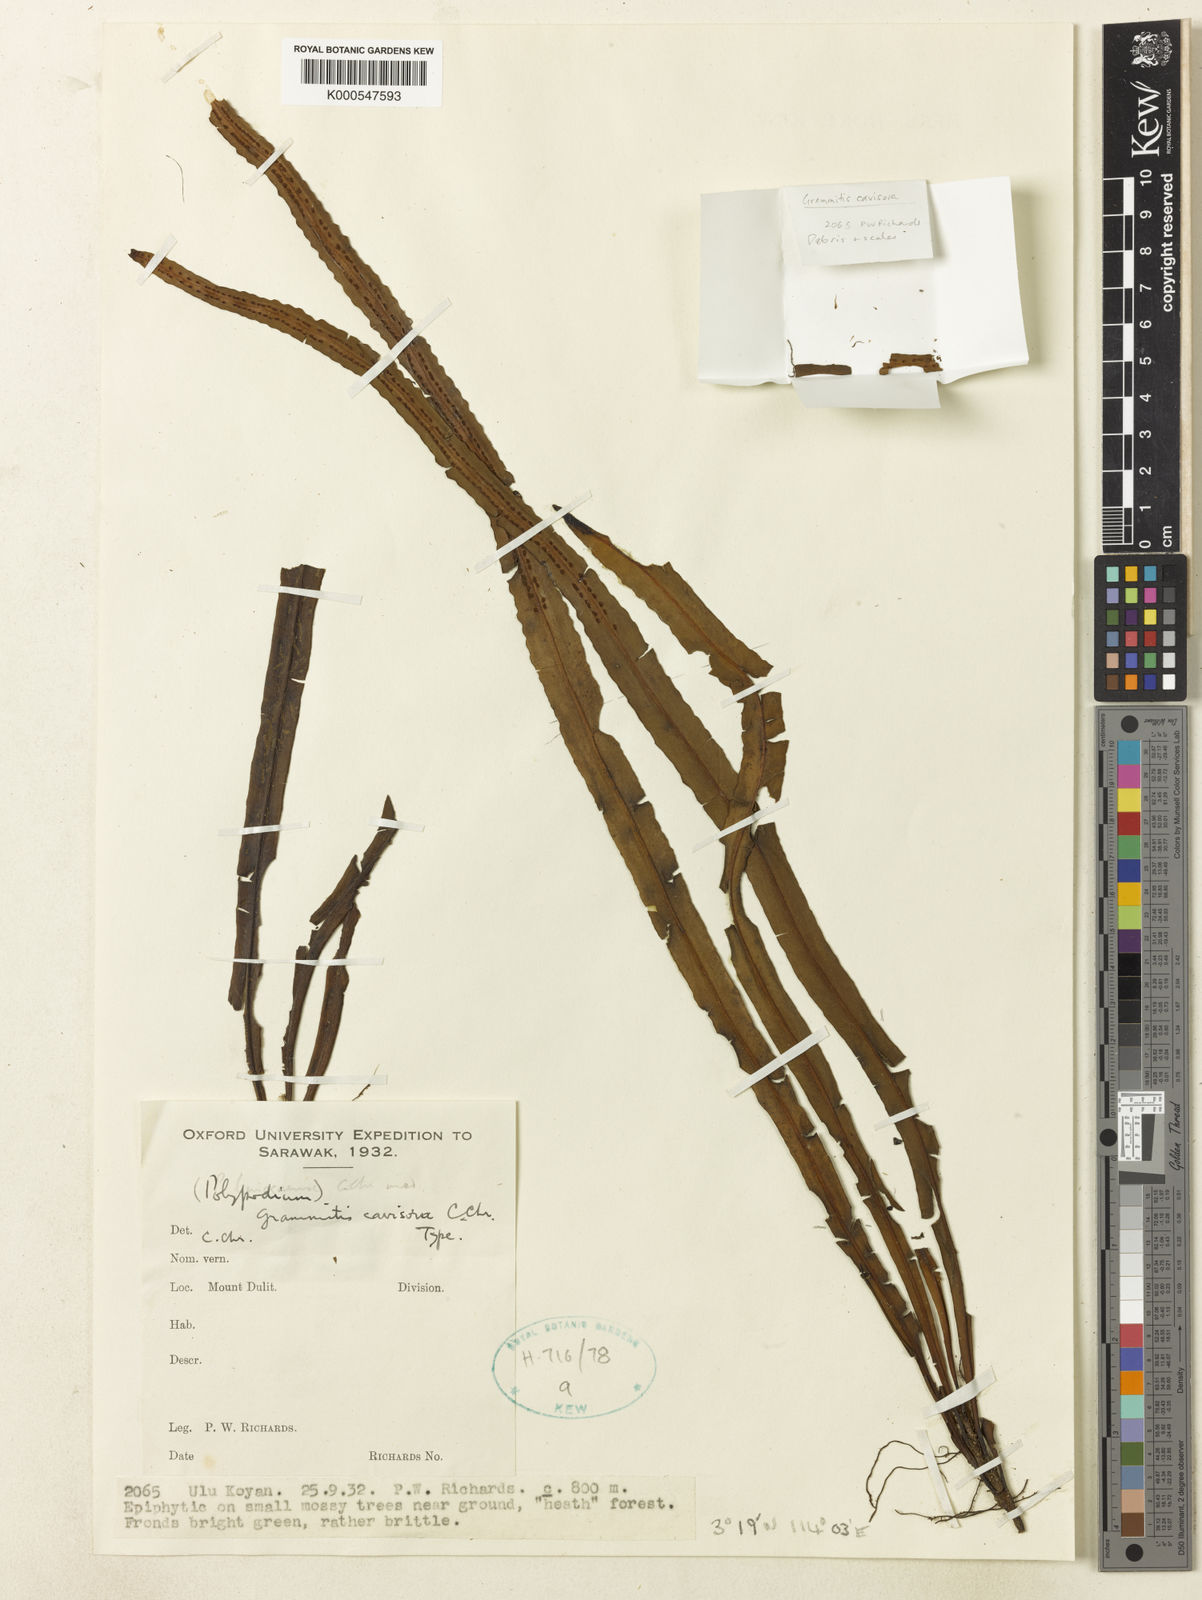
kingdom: Plantae
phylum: Tracheophyta
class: Polypodiopsida
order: Polypodiales
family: Polypodiaceae
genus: Prosaptia
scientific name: Prosaptia cavisora
